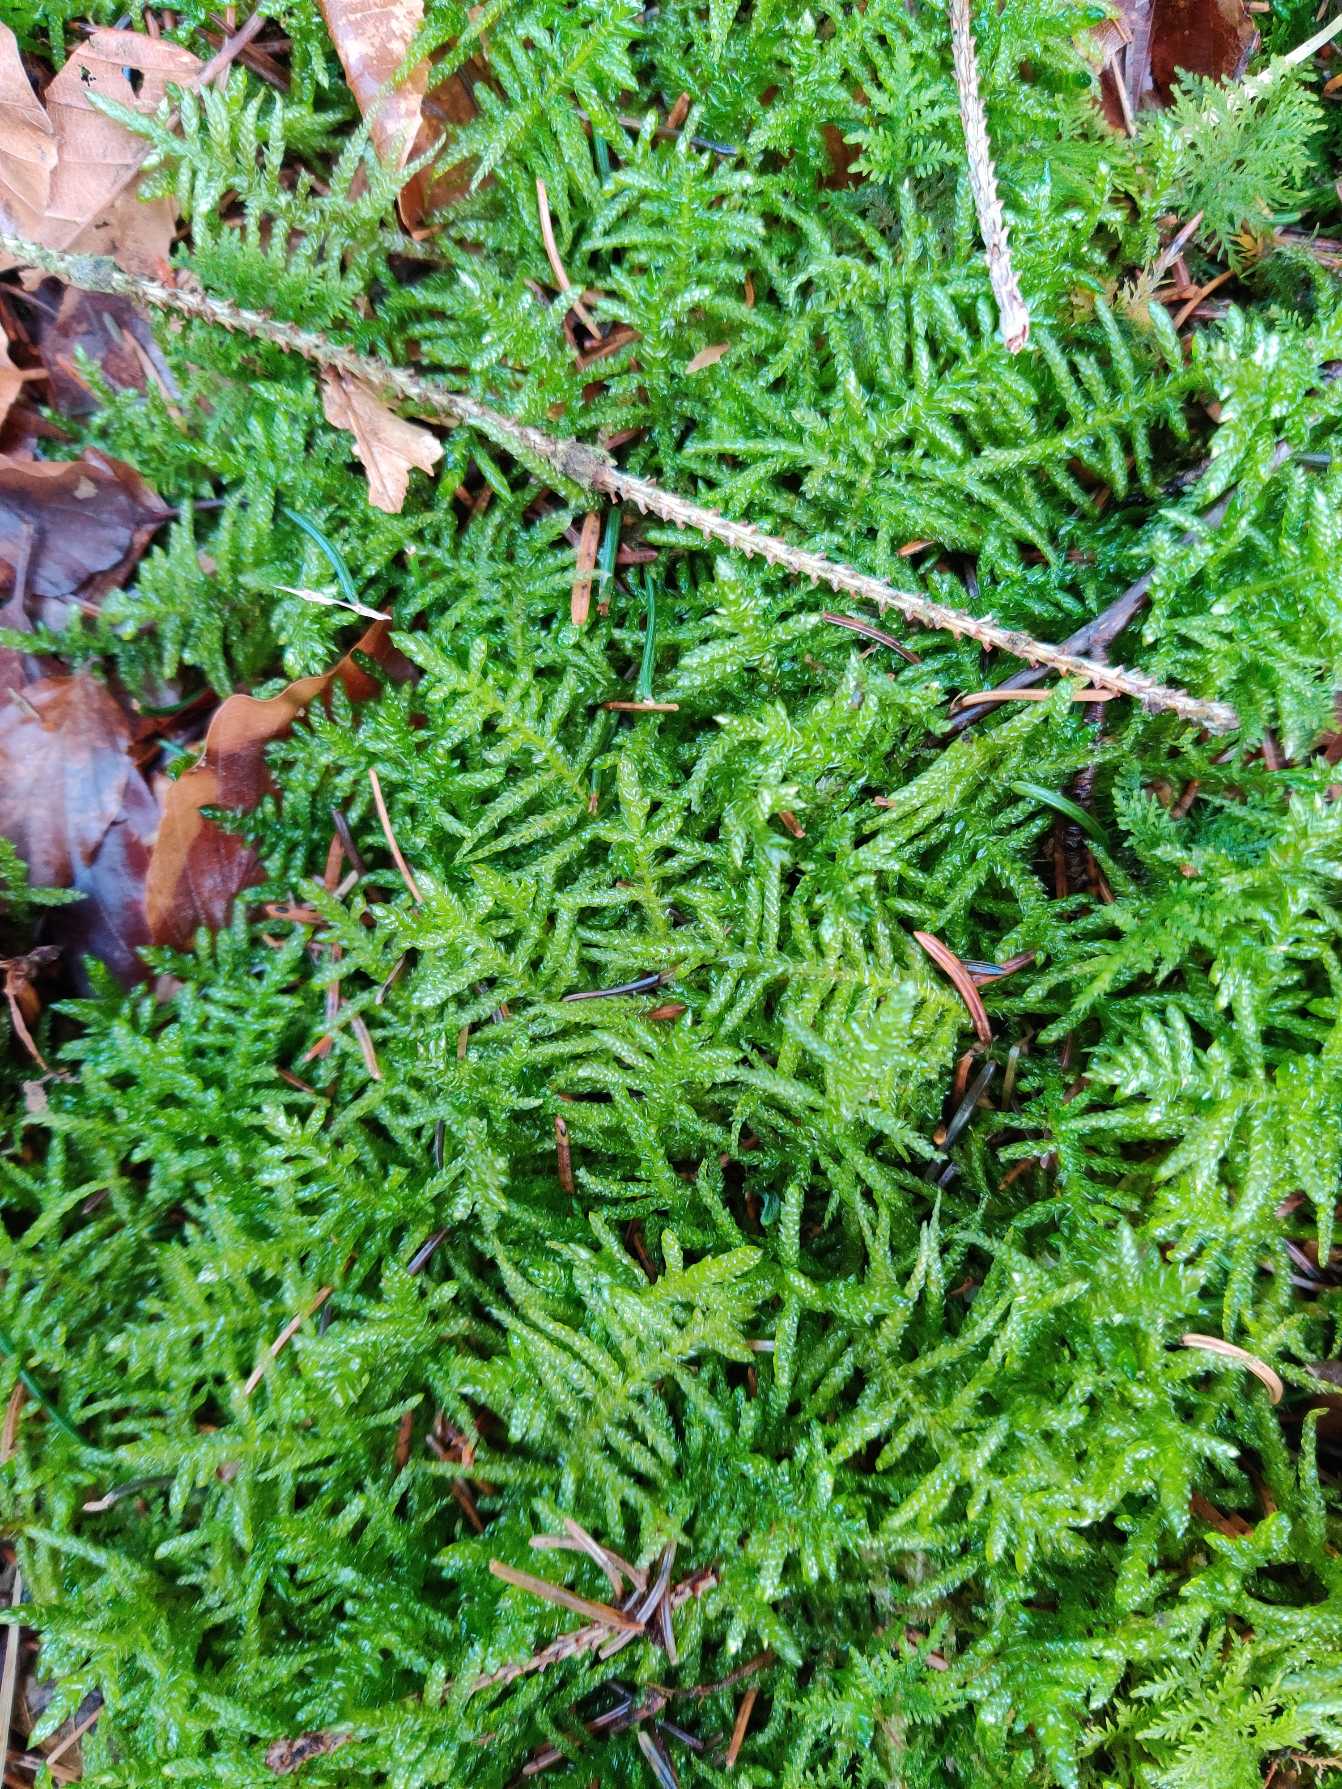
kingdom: Plantae
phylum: Bryophyta
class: Bryopsida
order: Hypnales
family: Brachytheciaceae
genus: Pseudoscleropodium
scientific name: Pseudoscleropodium purum
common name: Hulbladet fedtmos
